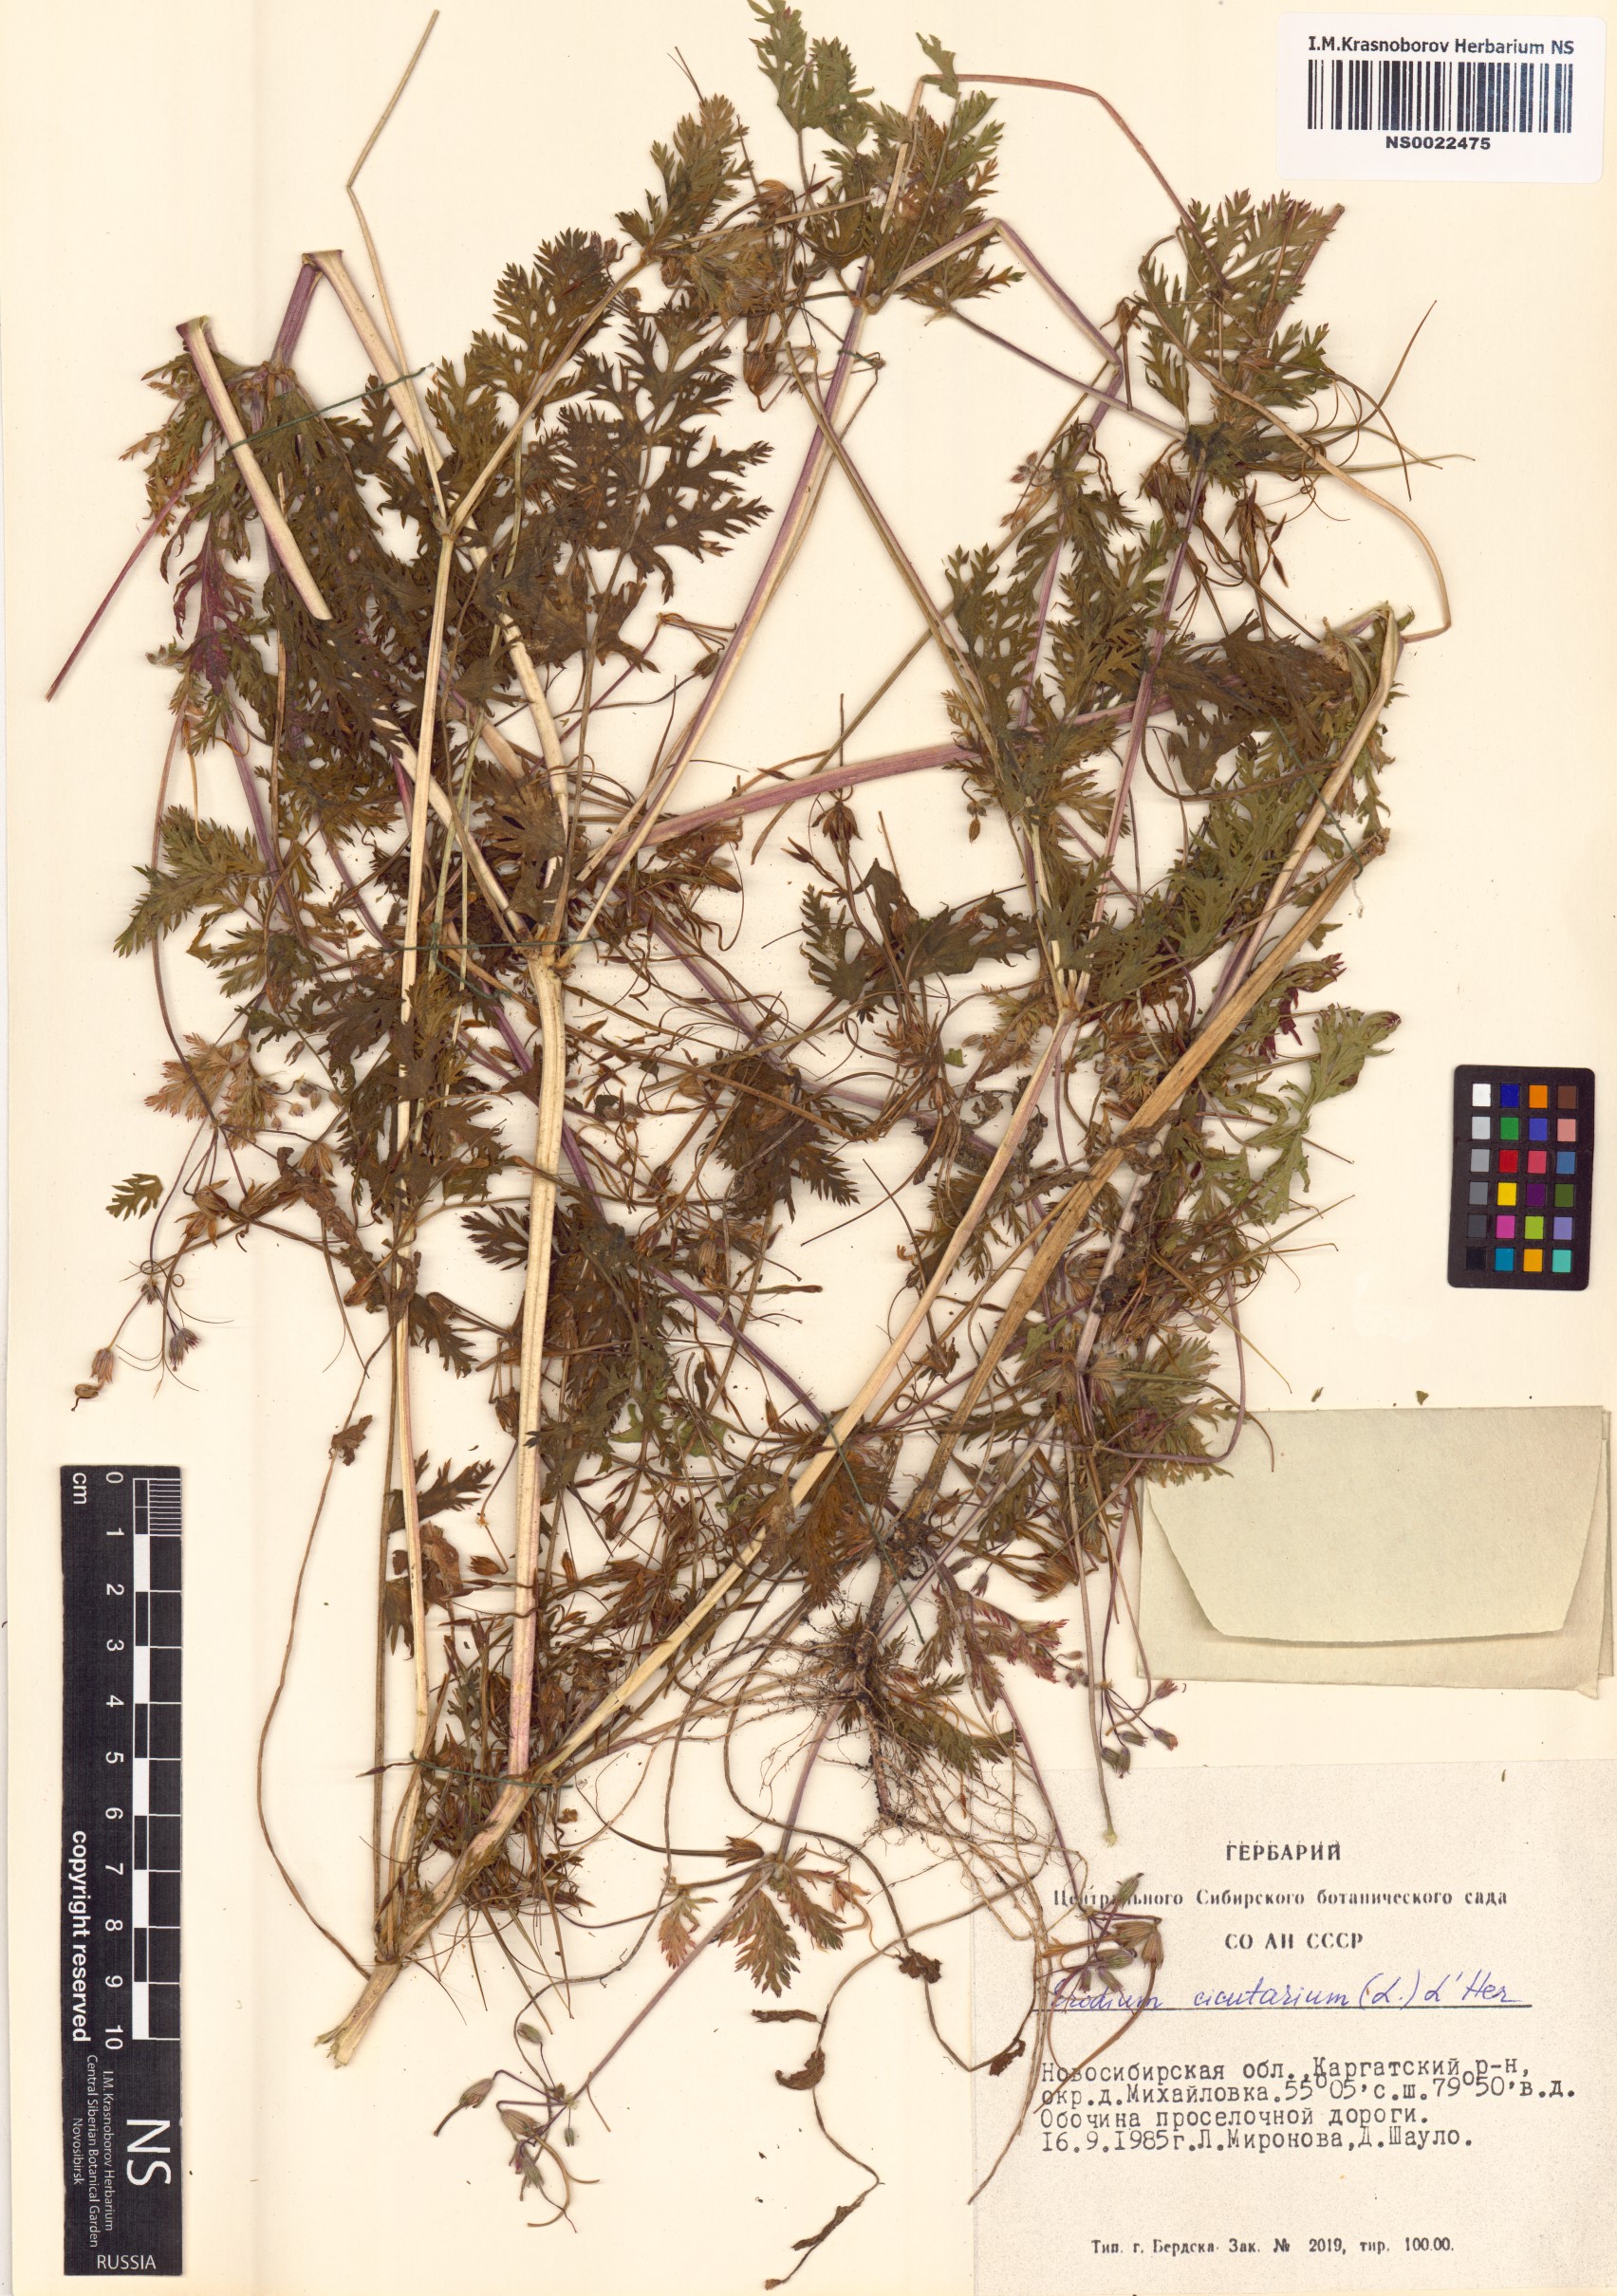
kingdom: Plantae
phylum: Tracheophyta
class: Magnoliopsida
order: Geraniales
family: Geraniaceae
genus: Erodium
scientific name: Erodium cicutarium
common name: Common stork's-bill
